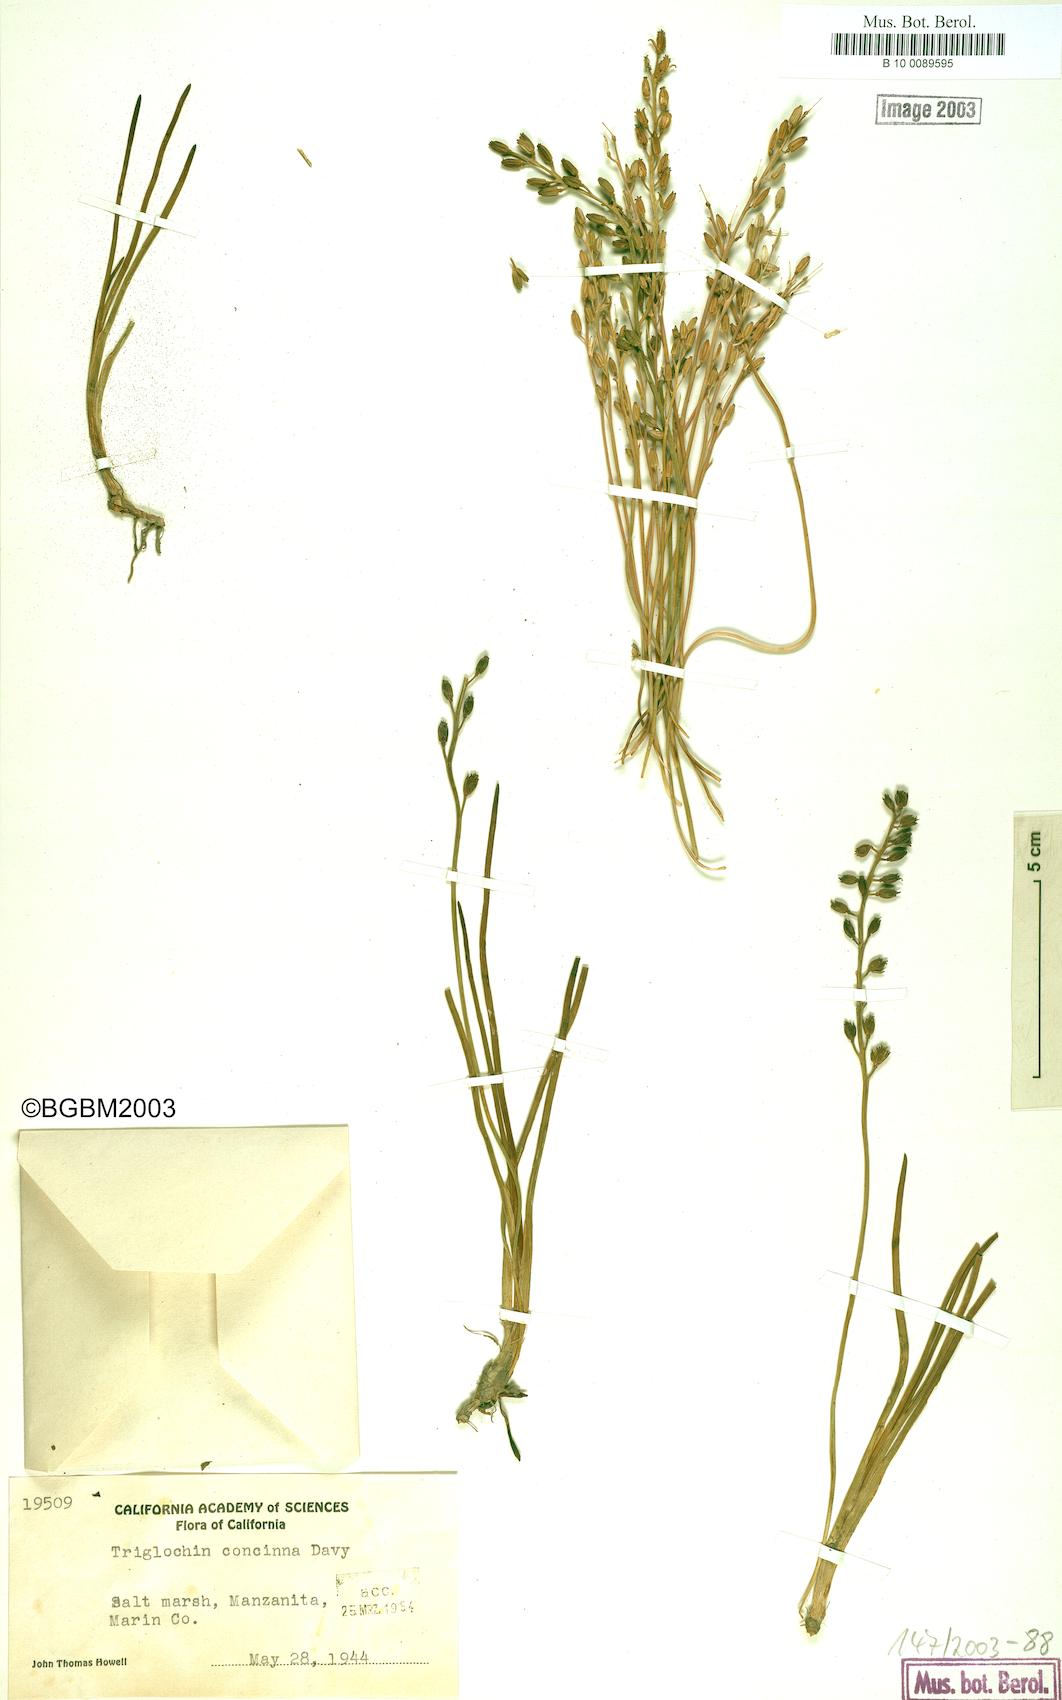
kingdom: Plantae
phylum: Tracheophyta
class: Liliopsida
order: Alismatales
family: Juncaginaceae
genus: Triglochin
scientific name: Triglochin maritima
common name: Sea arrowgrass
